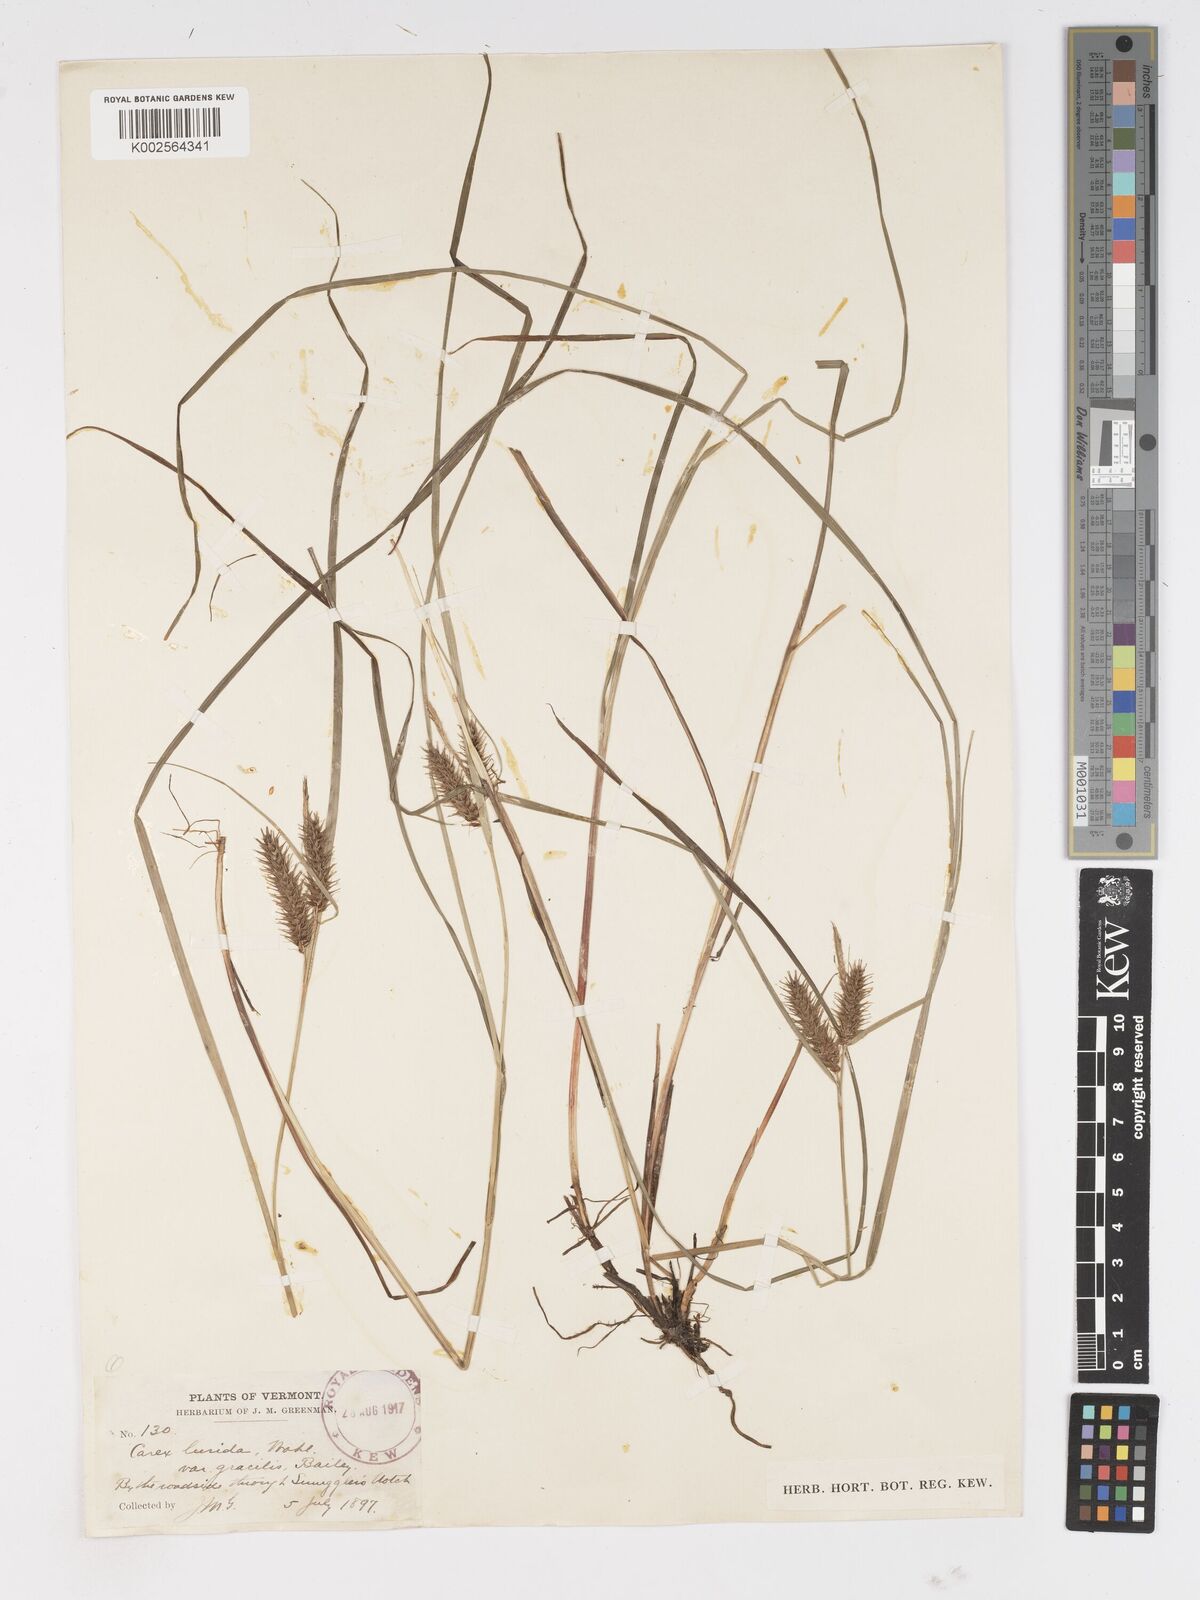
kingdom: Plantae
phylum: Tracheophyta
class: Liliopsida
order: Poales
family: Cyperaceae
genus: Carex
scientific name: Carex baileyi
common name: Bailey's sedge
